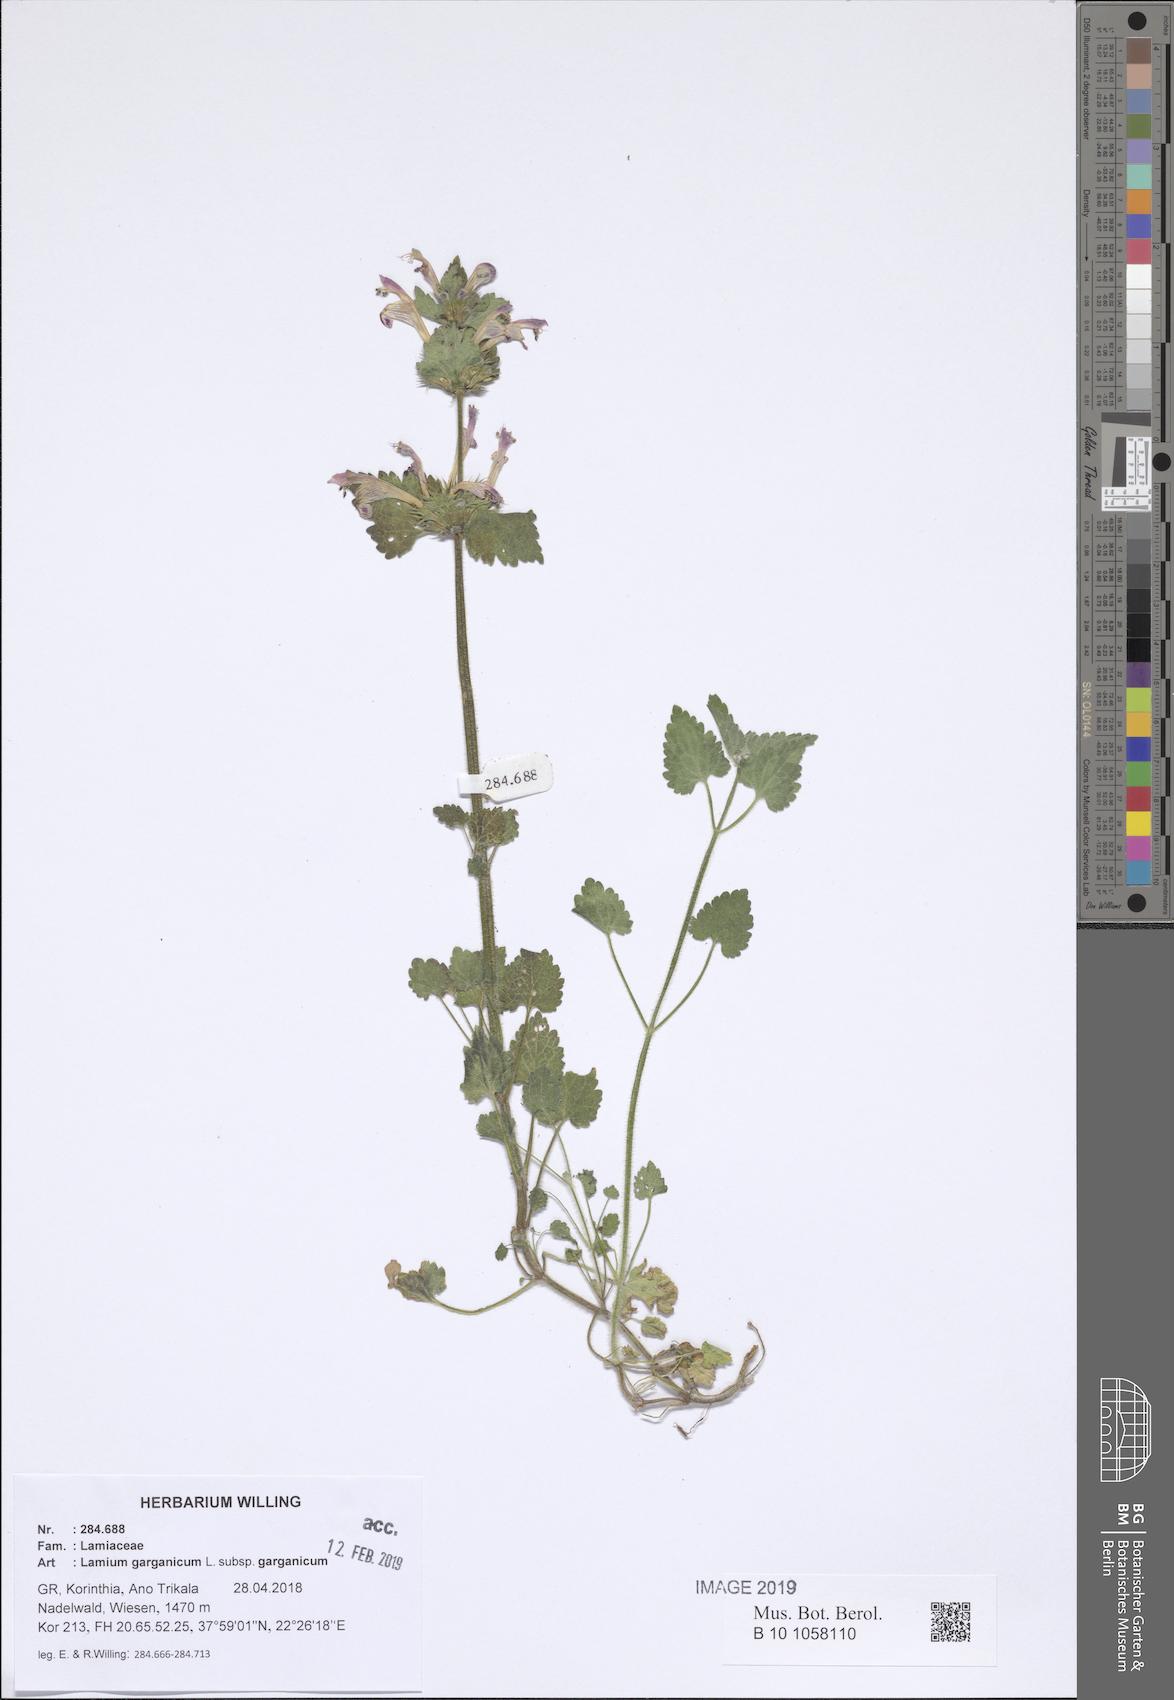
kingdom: Plantae
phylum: Tracheophyta
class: Magnoliopsida
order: Lamiales
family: Lamiaceae
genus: Lamium
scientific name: Lamium garganicum
